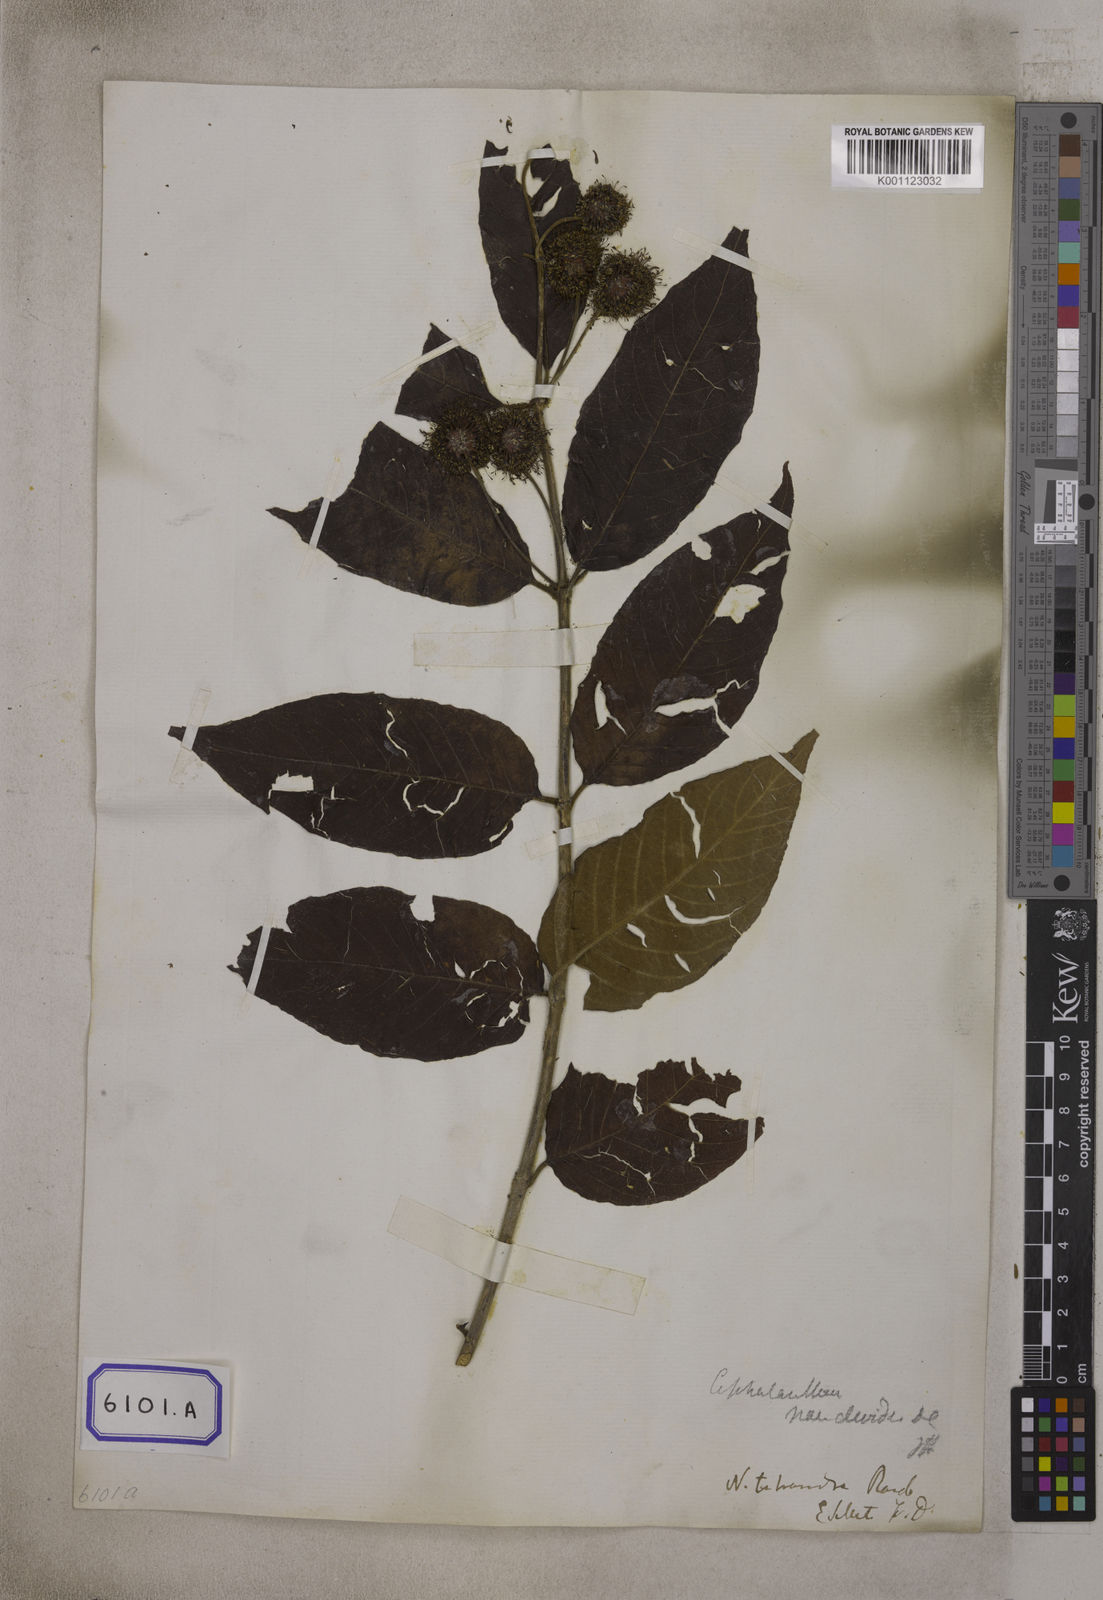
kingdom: Plantae
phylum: Tracheophyta
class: Magnoliopsida
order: Gentianales
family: Rubiaceae
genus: Cephalanthus
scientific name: Cephalanthus tetrandrus
